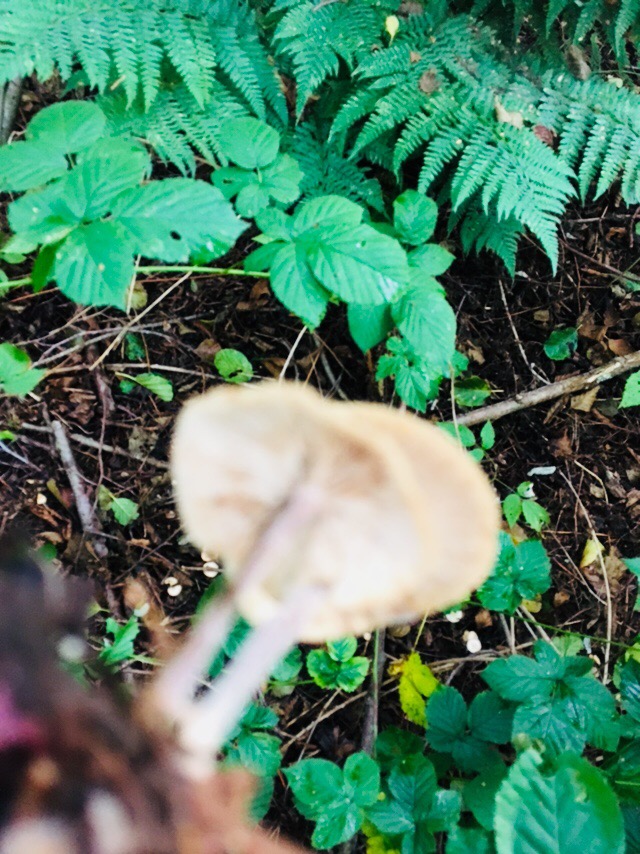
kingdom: Fungi
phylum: Basidiomycota
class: Agaricomycetes
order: Agaricales
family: Omphalotaceae
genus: Collybiopsis
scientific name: Collybiopsis confluens
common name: knippe-fladhat
